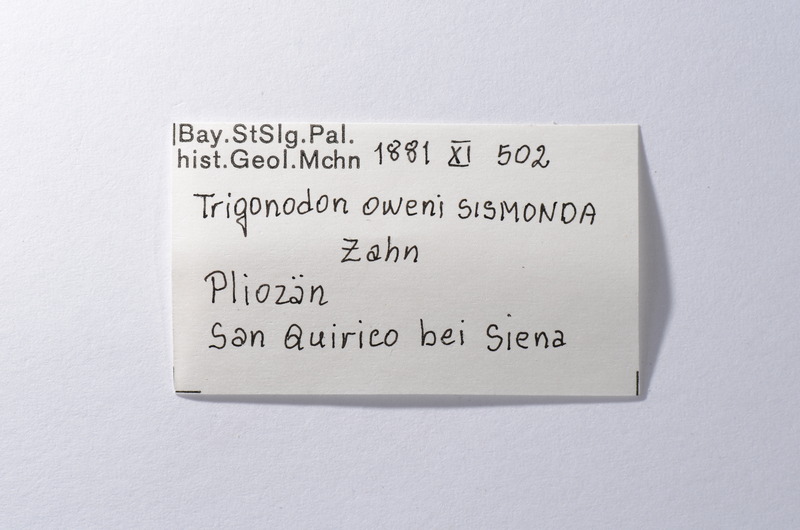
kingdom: Animalia
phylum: Chordata
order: Tetraodontiformes
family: Trigonodontidae
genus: Trigonodon
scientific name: Trigonodon Radamas jugleri
